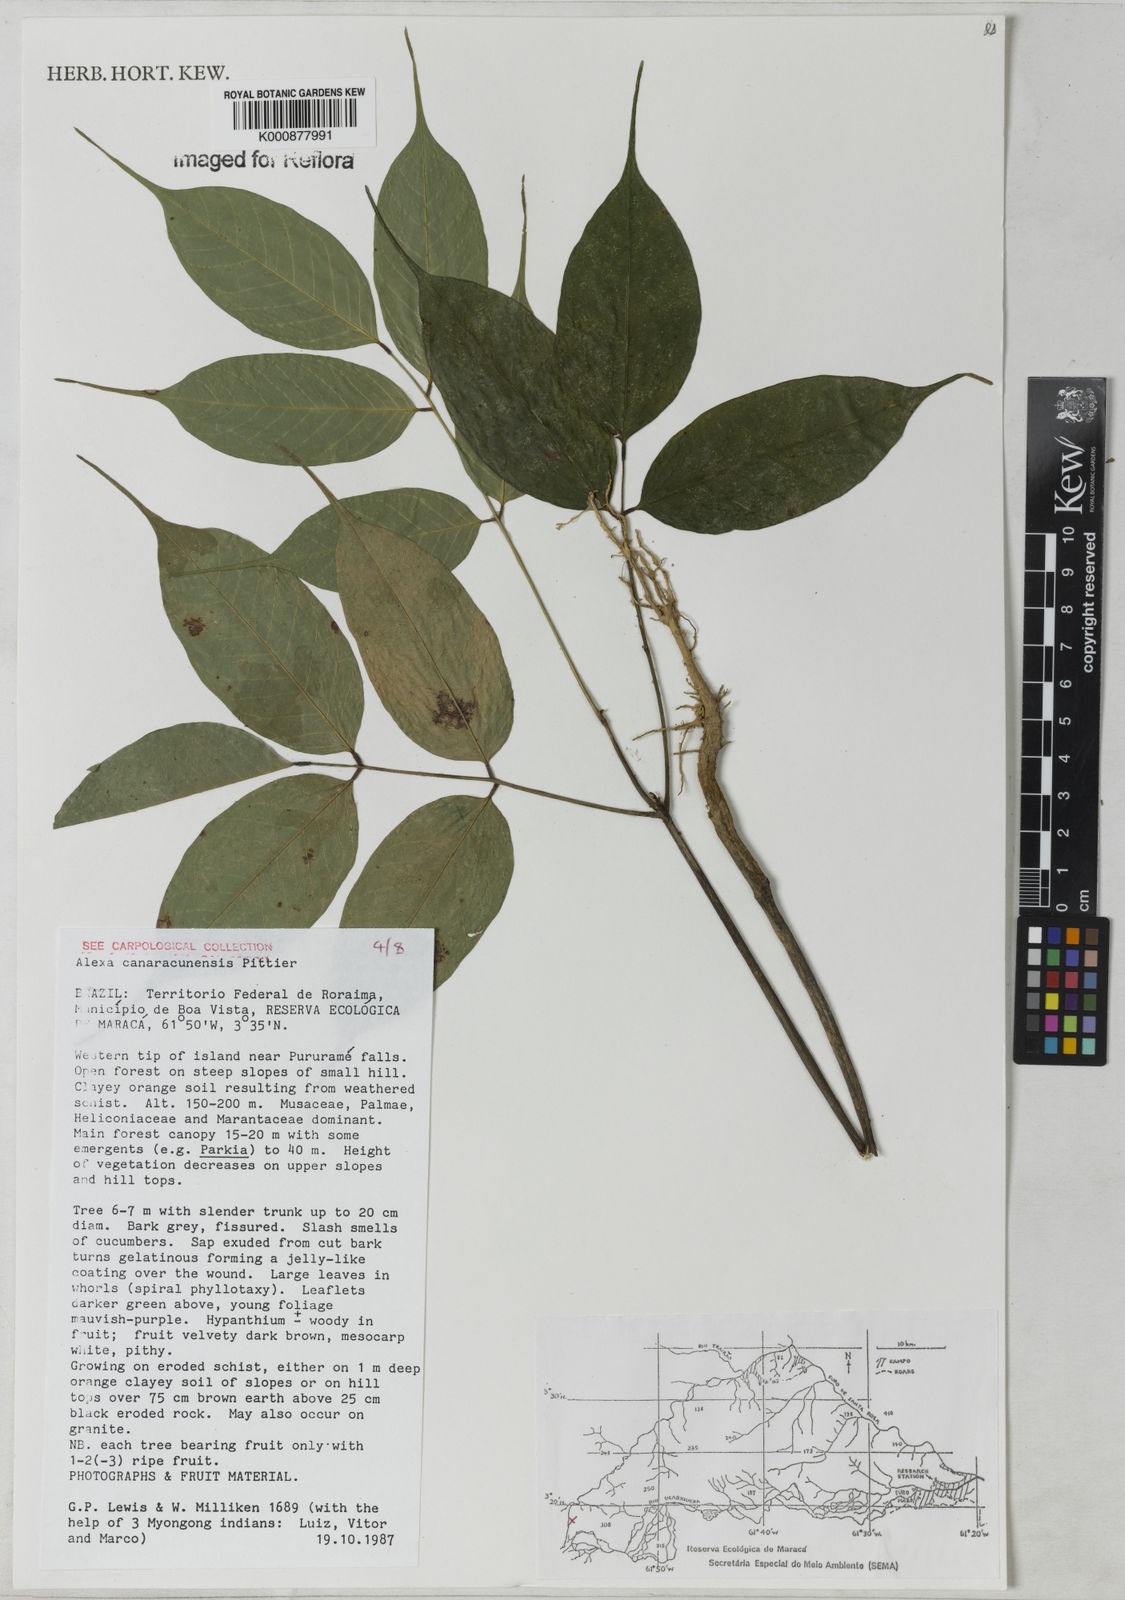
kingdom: Plantae
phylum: Tracheophyta
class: Magnoliopsida
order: Fabales
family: Fabaceae
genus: Alexa
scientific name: Alexa canaracunensis
